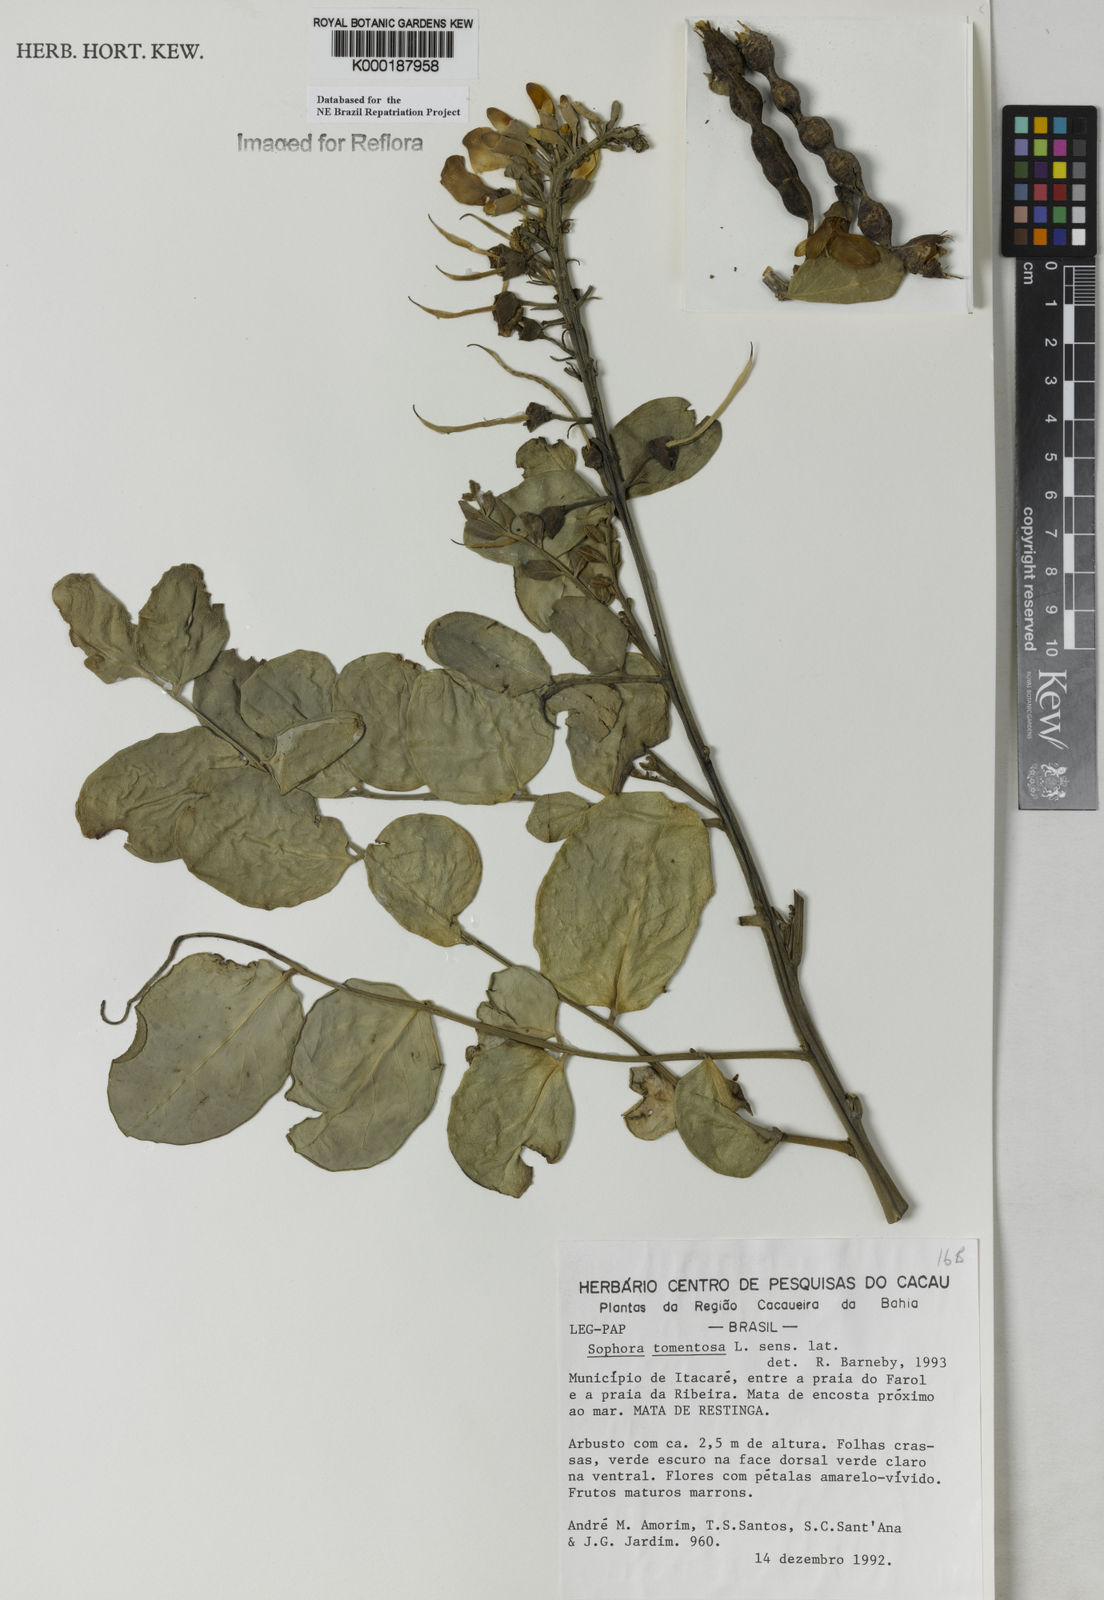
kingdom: Plantae
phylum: Tracheophyta
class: Magnoliopsida
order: Fabales
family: Fabaceae
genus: Sophora
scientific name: Sophora tomentosa
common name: Yellow necklacepod
